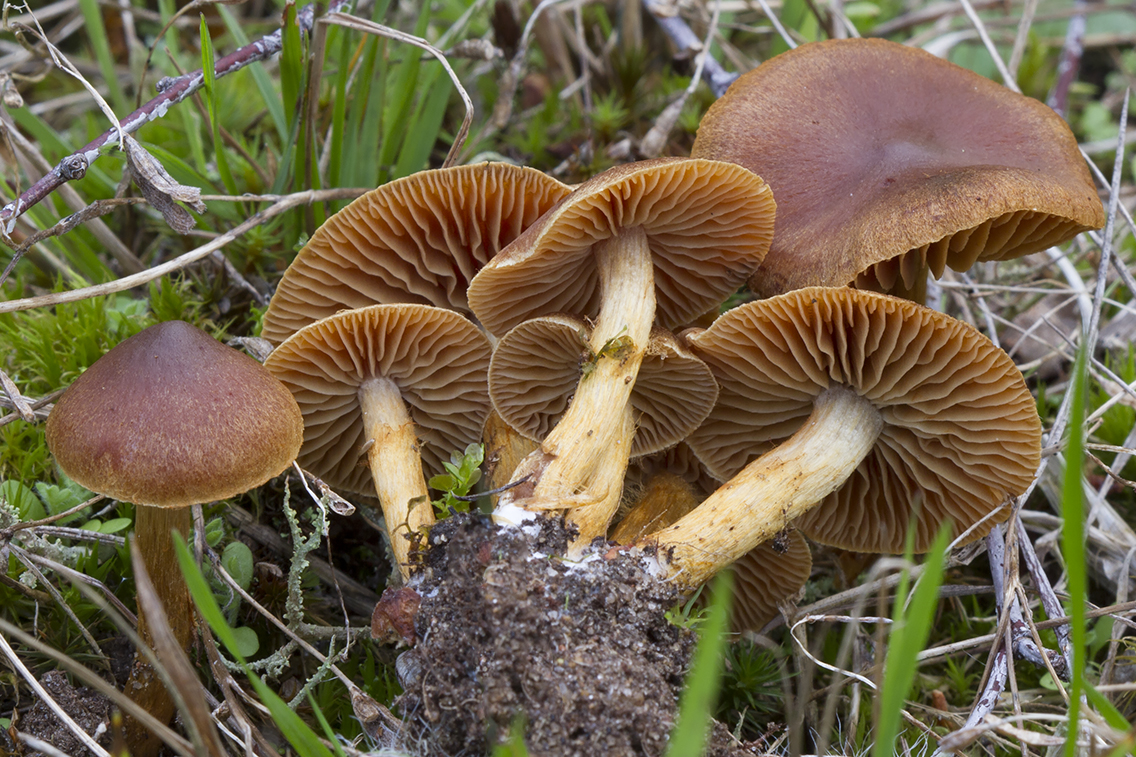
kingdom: Fungi
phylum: Basidiomycota
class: Agaricomycetes
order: Agaricales
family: Cortinariaceae
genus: Cortinarius
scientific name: Cortinarius saniosus
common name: gultrævlet slørhat
